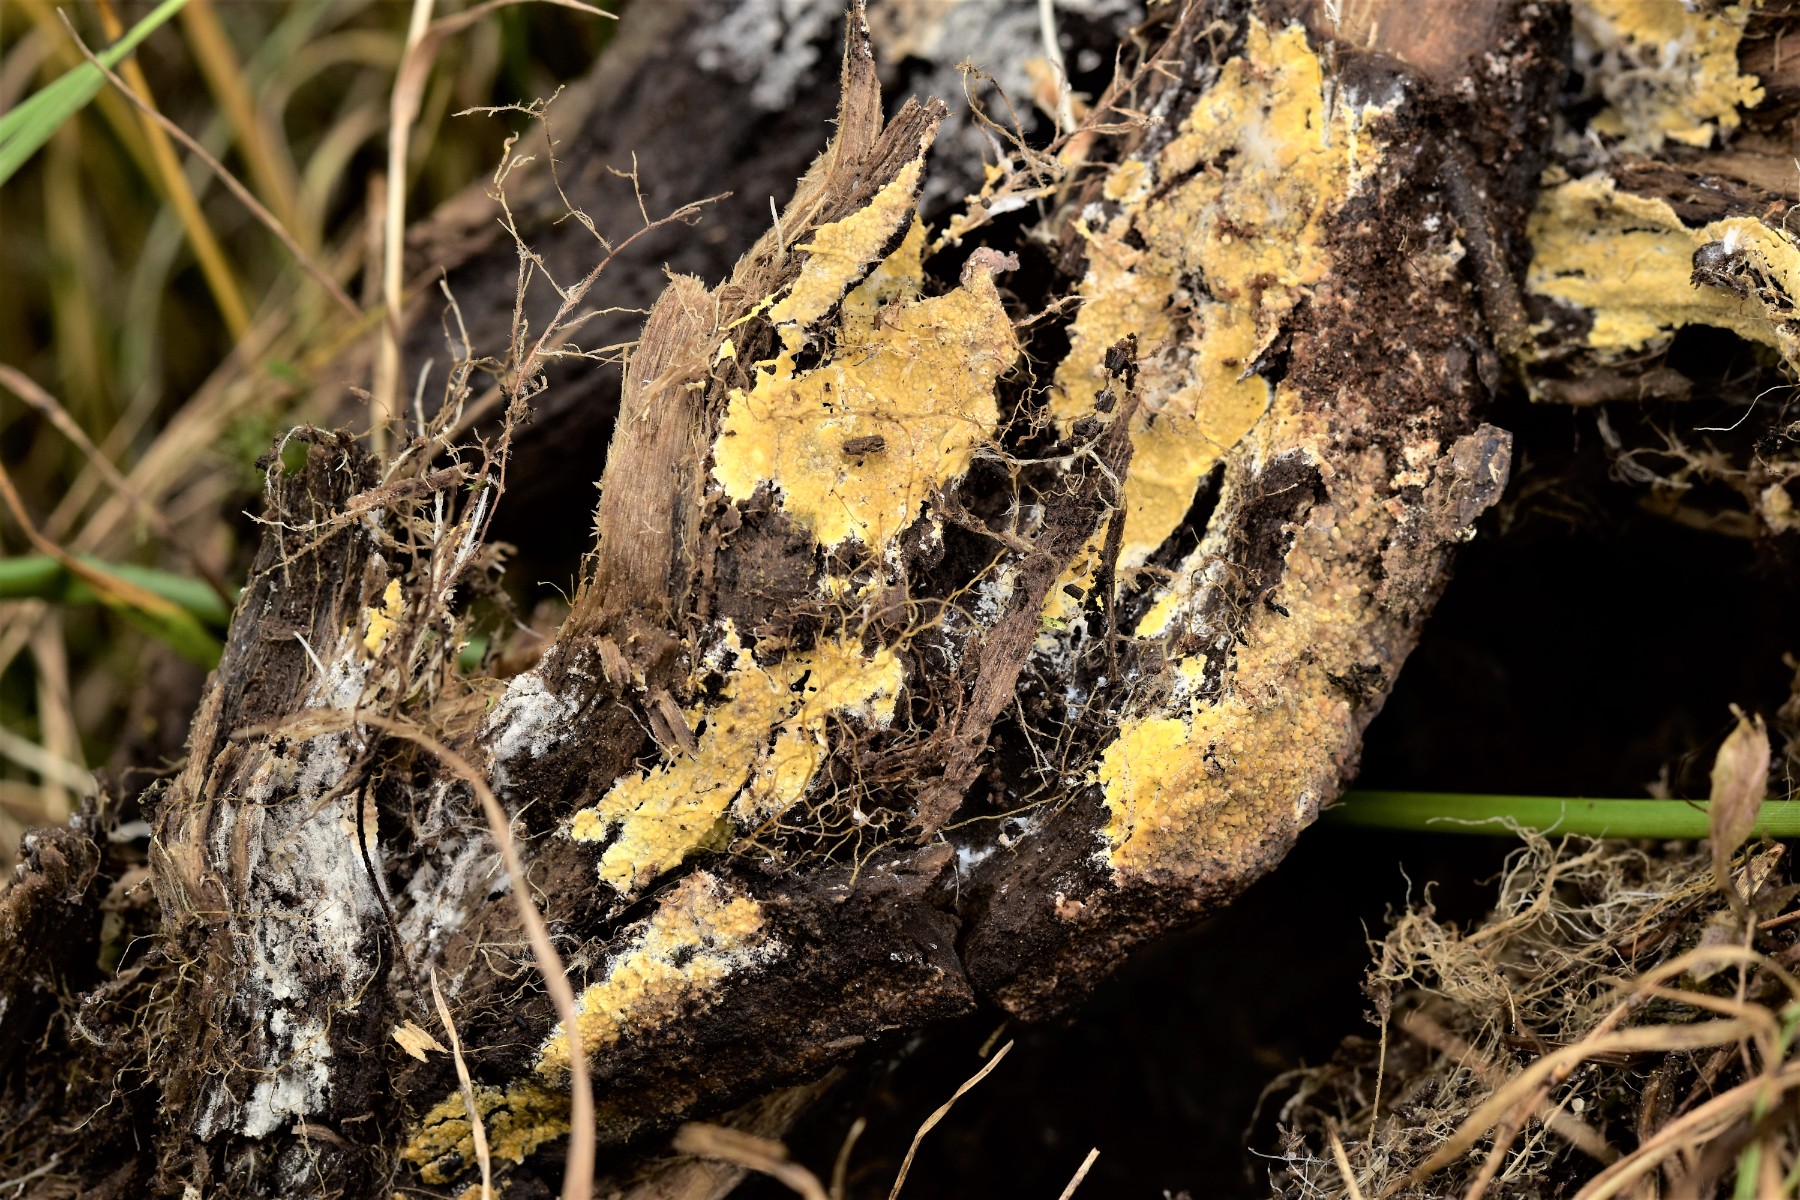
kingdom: Fungi
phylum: Basidiomycota
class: Agaricomycetes
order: Polyporales
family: Meruliaceae
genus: Phlebiodontia
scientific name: Phlebiodontia subochracea
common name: svovl-åresvamp
